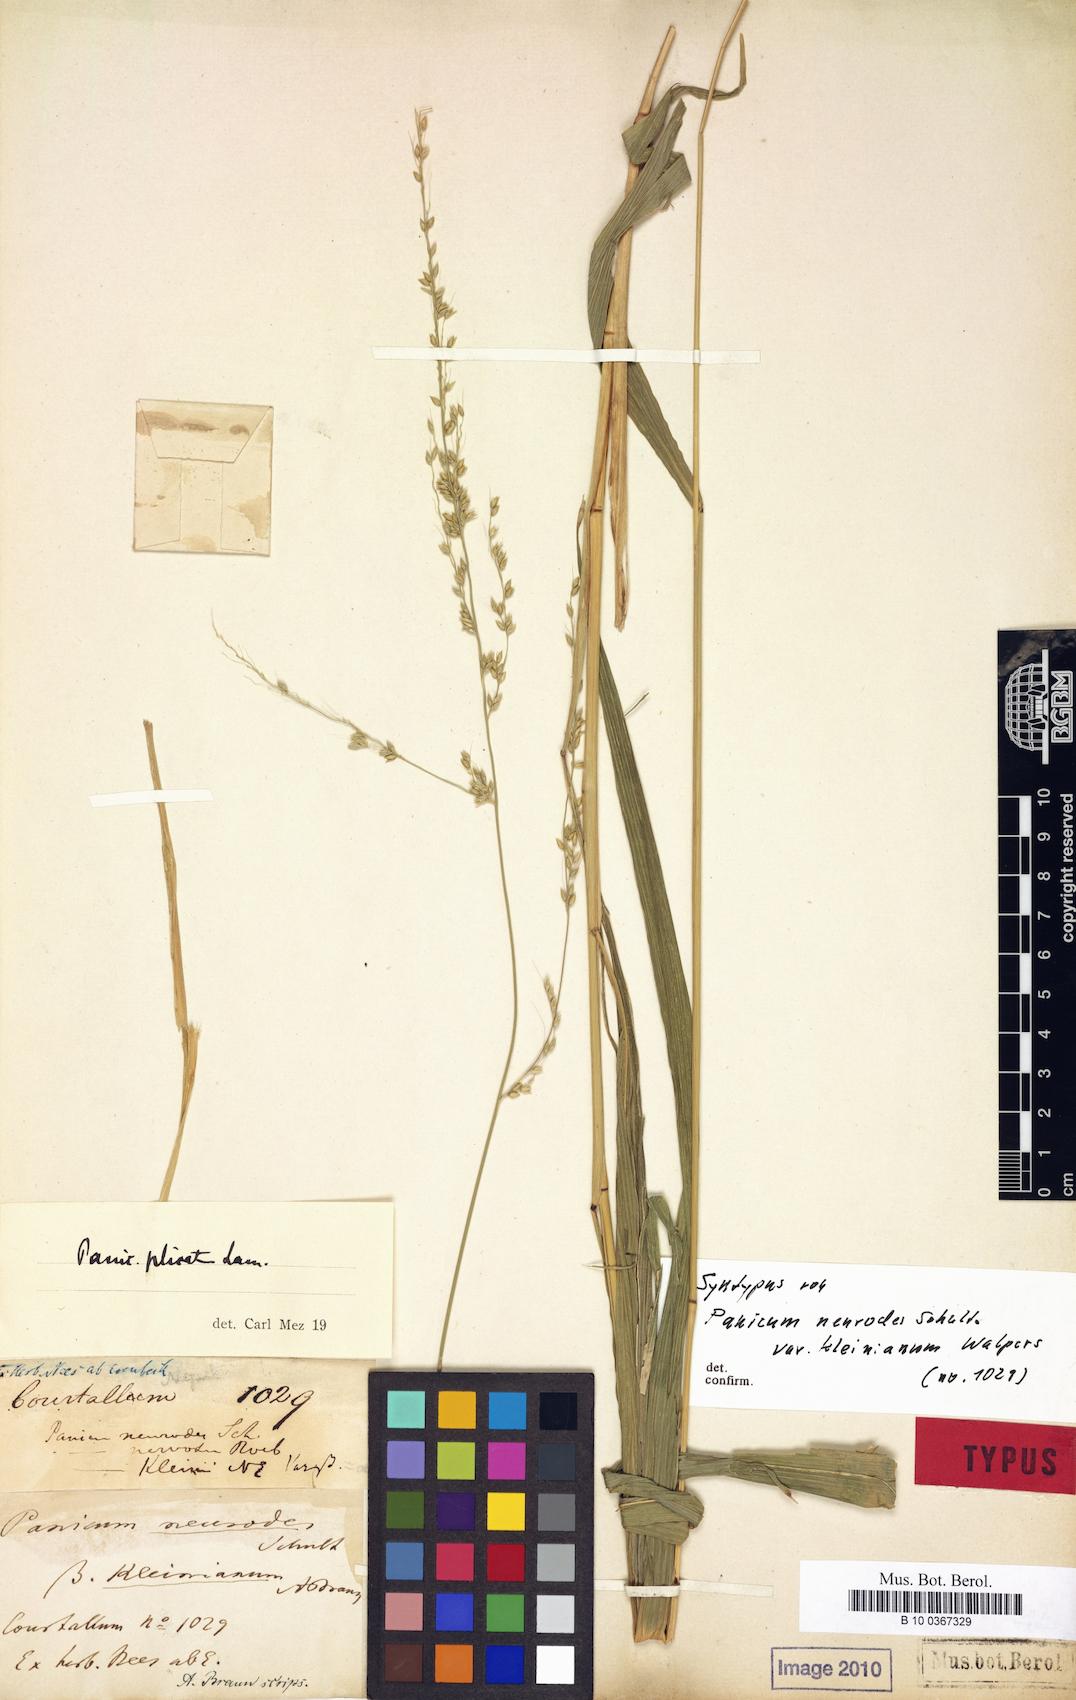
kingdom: Plantae
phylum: Tracheophyta
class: Liliopsida
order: Poales
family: Poaceae
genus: Setaria
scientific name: Setaria palmifolia
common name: Broadleaved bristlegrass
